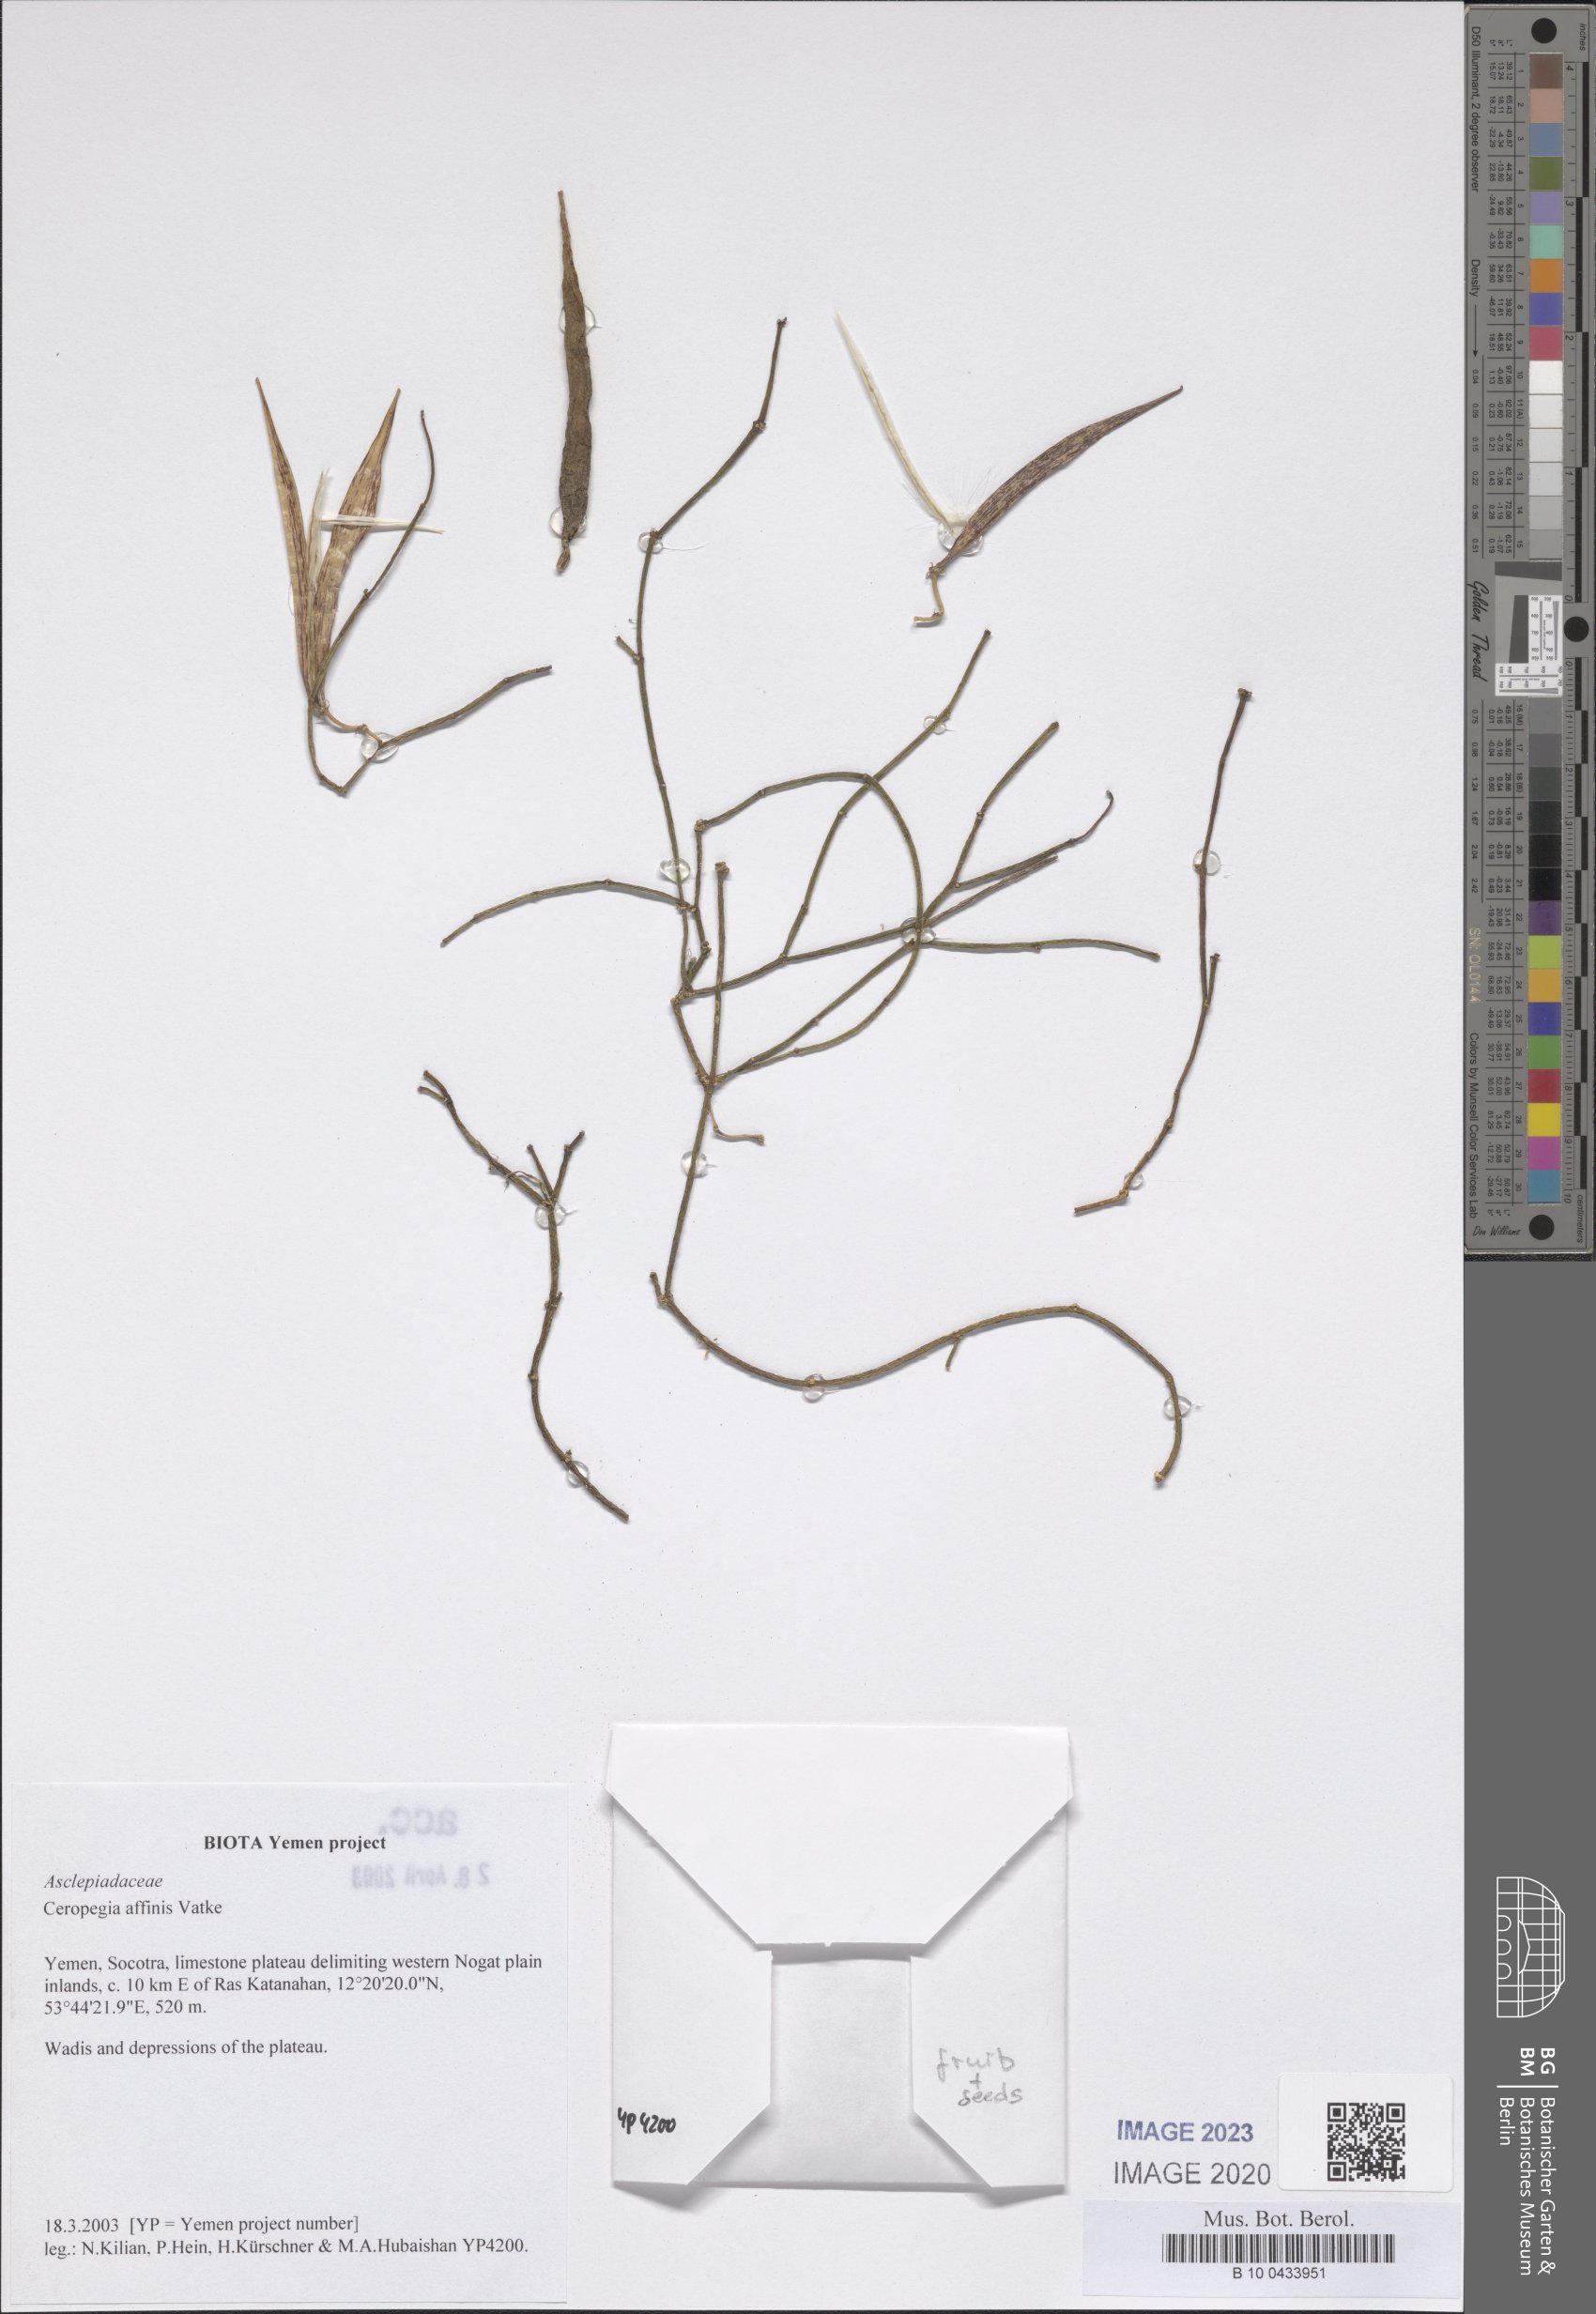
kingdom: Plantae
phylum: Tracheophyta
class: Magnoliopsida
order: Gentianales
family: Apocynaceae
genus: Ceropegia
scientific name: Ceropegia affinis
